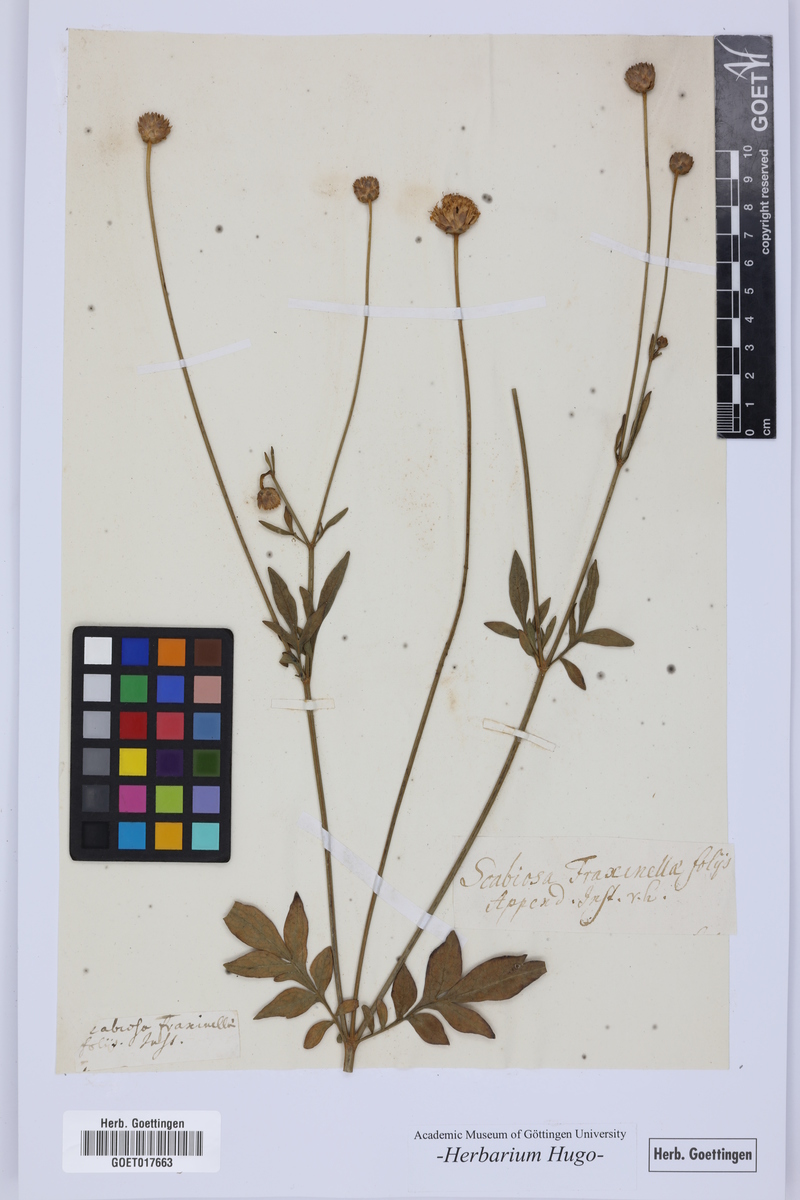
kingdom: Plantae
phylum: Tracheophyta
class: Magnoliopsida
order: Dipsacales
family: Caprifoliaceae
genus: Scabiosa
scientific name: Scabiosa
